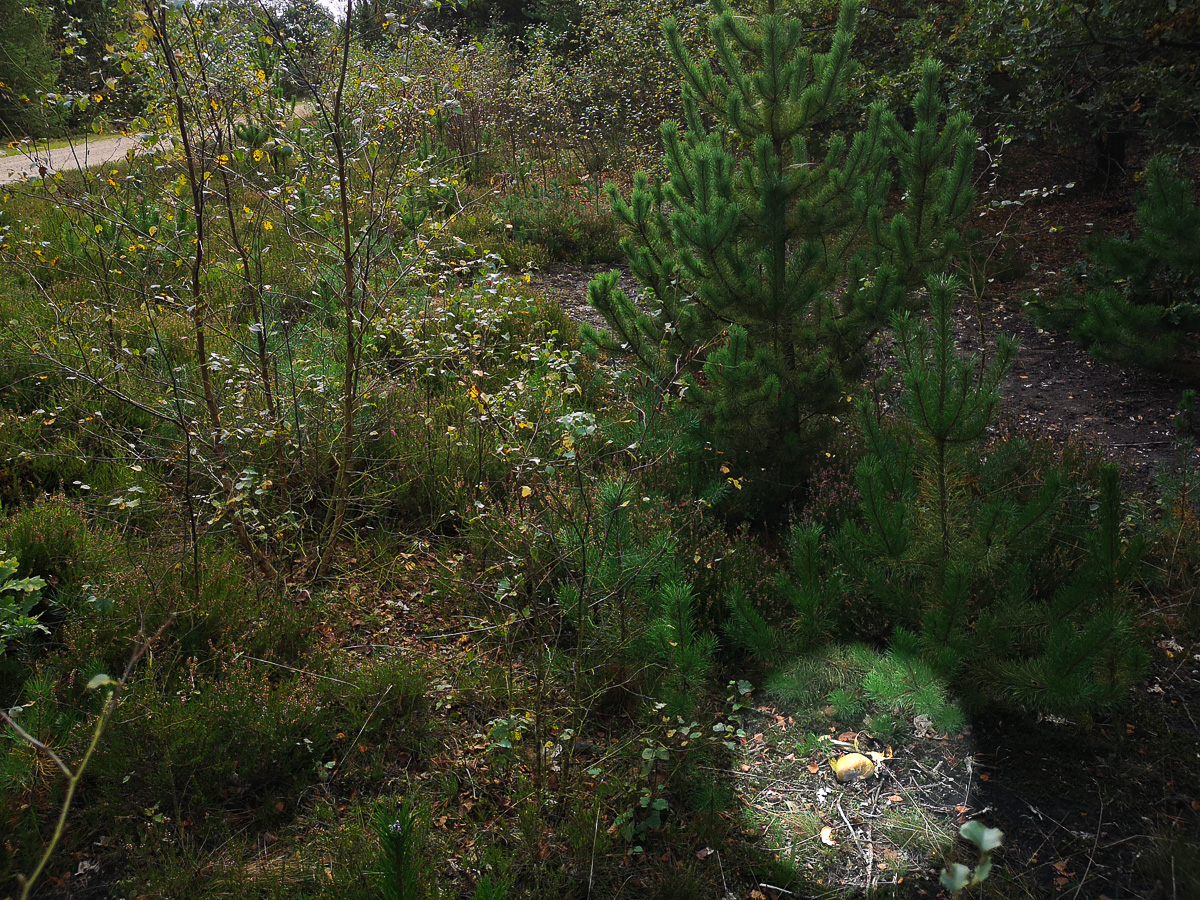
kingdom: Fungi
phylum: Basidiomycota
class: Agaricomycetes
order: Boletales
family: Sclerodermataceae
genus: Scleroderma
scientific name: Scleroderma citrinum
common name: almindelig bruskbold
